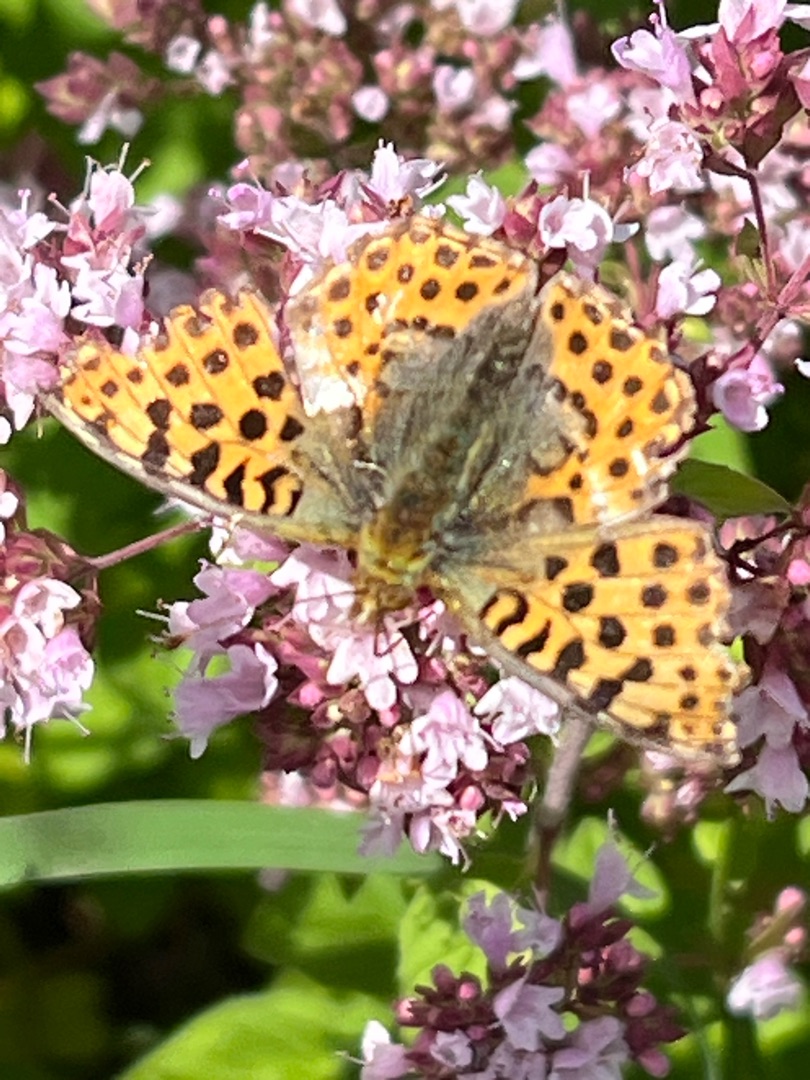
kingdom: Animalia
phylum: Arthropoda
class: Insecta
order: Lepidoptera
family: Nymphalidae
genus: Issoria
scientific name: Issoria lathonia
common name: Storplettet perlemorsommerfugl
